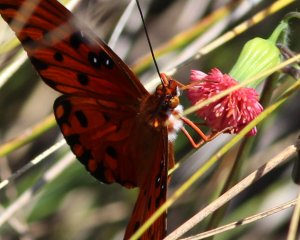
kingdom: Animalia
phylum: Arthropoda
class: Insecta
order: Lepidoptera
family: Nymphalidae
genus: Dione
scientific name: Dione vanillae
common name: Gulf Fritillary
